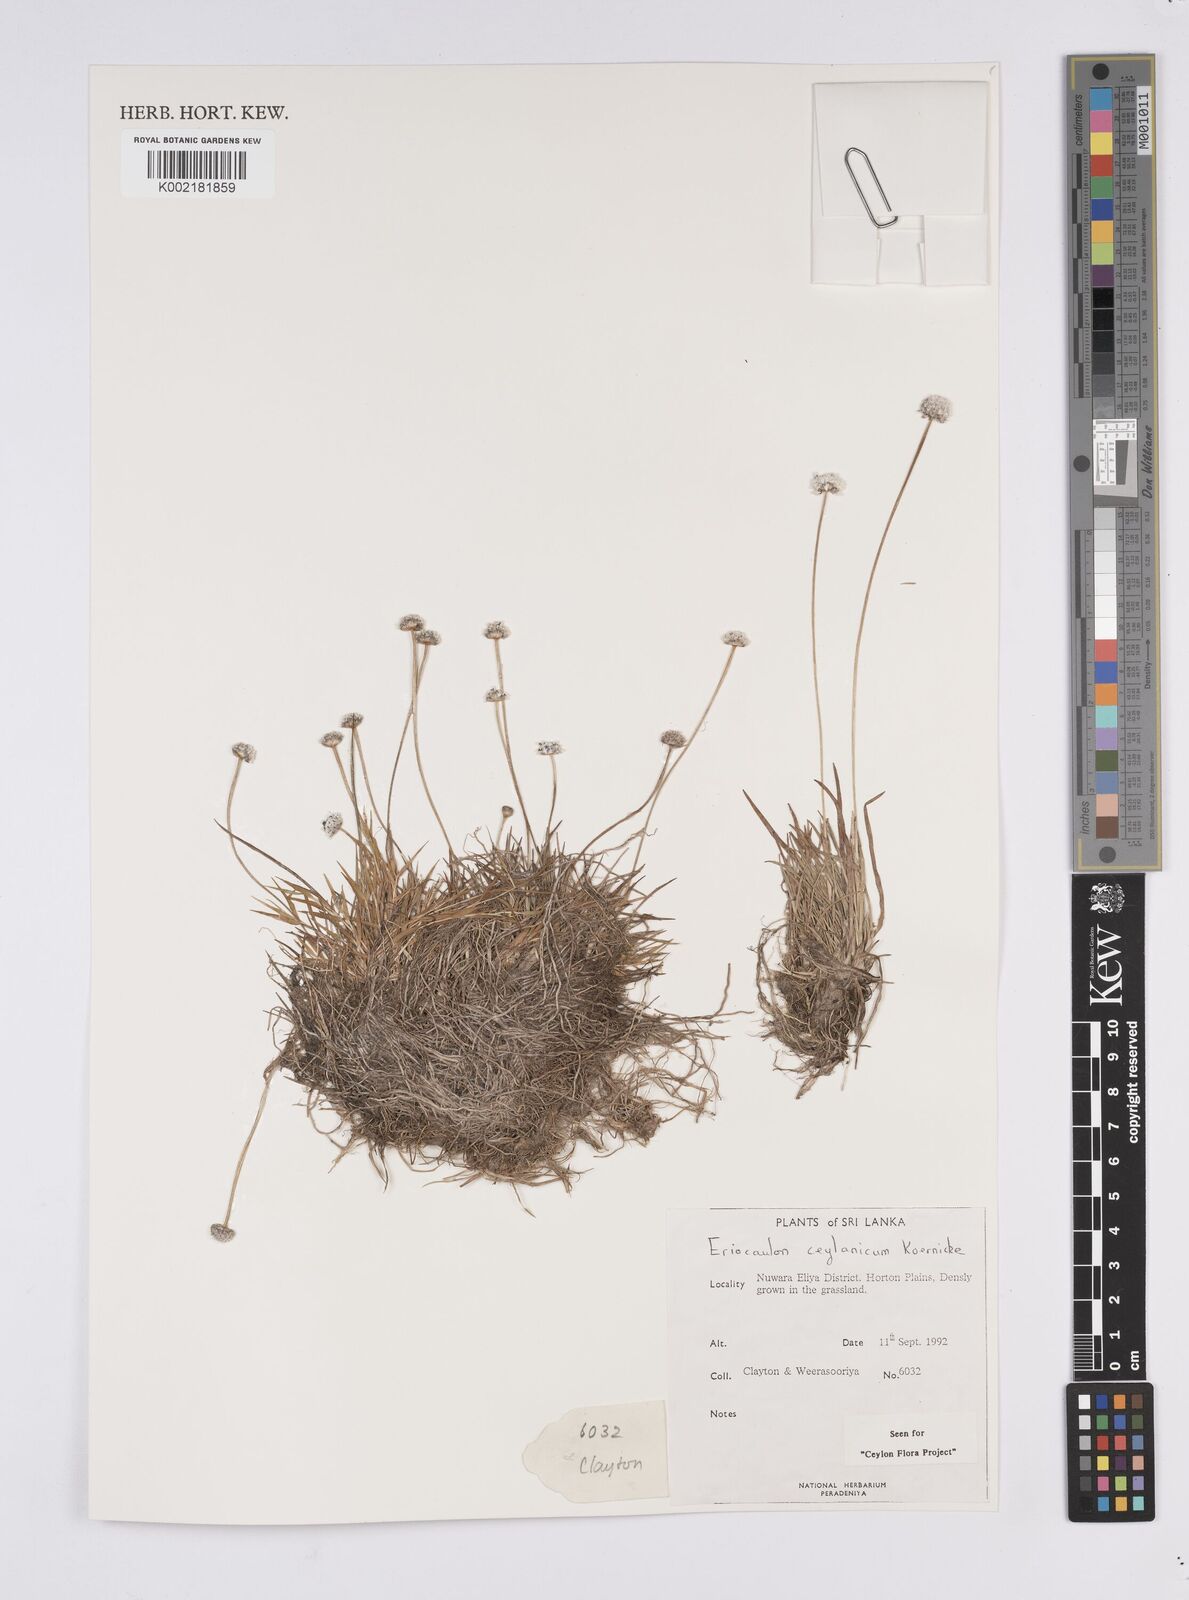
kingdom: Plantae
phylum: Tracheophyta
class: Liliopsida
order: Poales
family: Eriocaulaceae
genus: Eriocaulon
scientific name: Eriocaulon ceylanicum
